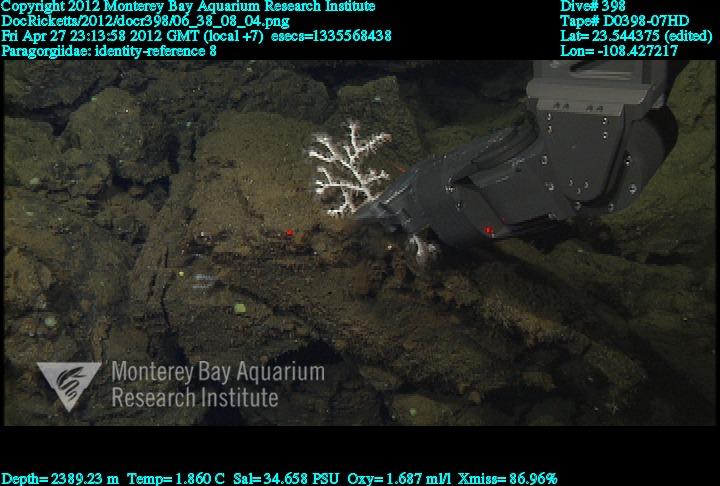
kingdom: Animalia
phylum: Cnidaria
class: Anthozoa
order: Scleralcyonacea
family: Coralliidae
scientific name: Coralliidae
